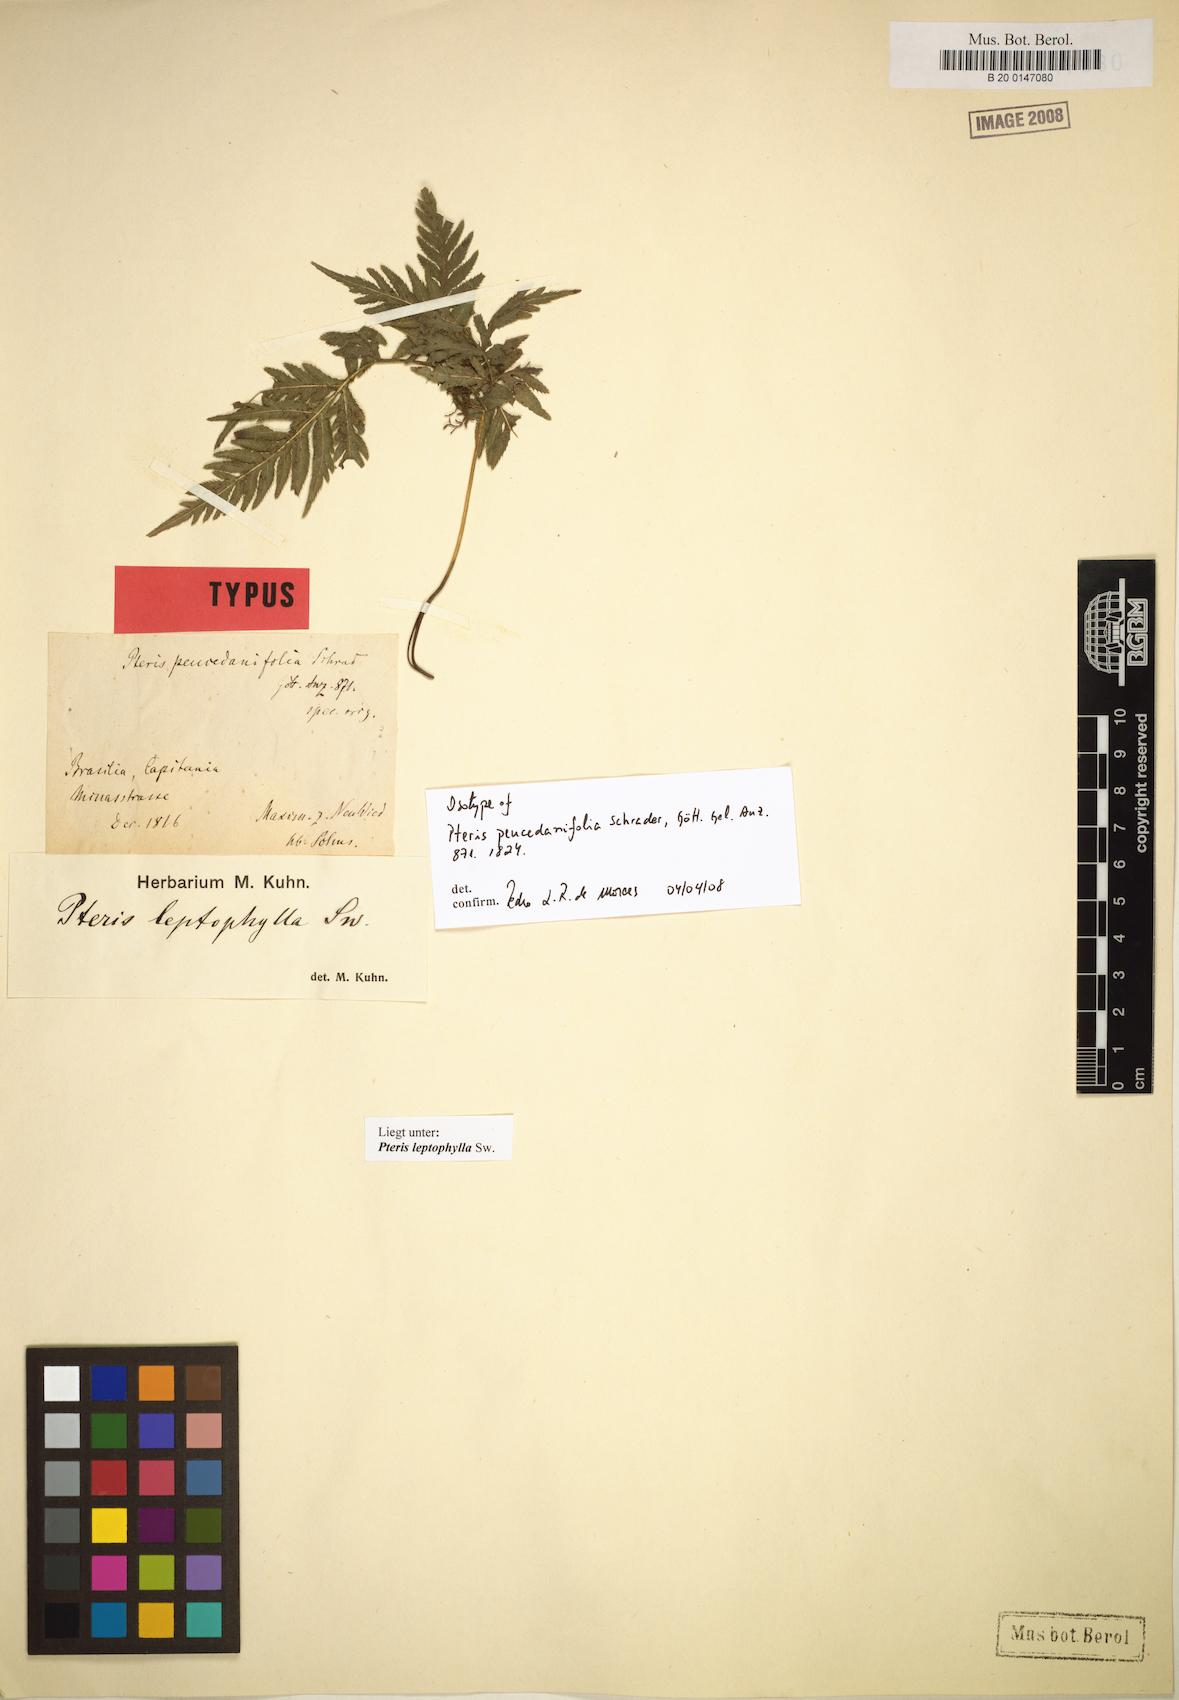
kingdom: Plantae
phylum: Tracheophyta
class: Polypodiopsida
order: Polypodiales
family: Pteridaceae
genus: Pteris
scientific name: Pteris leptophylla
